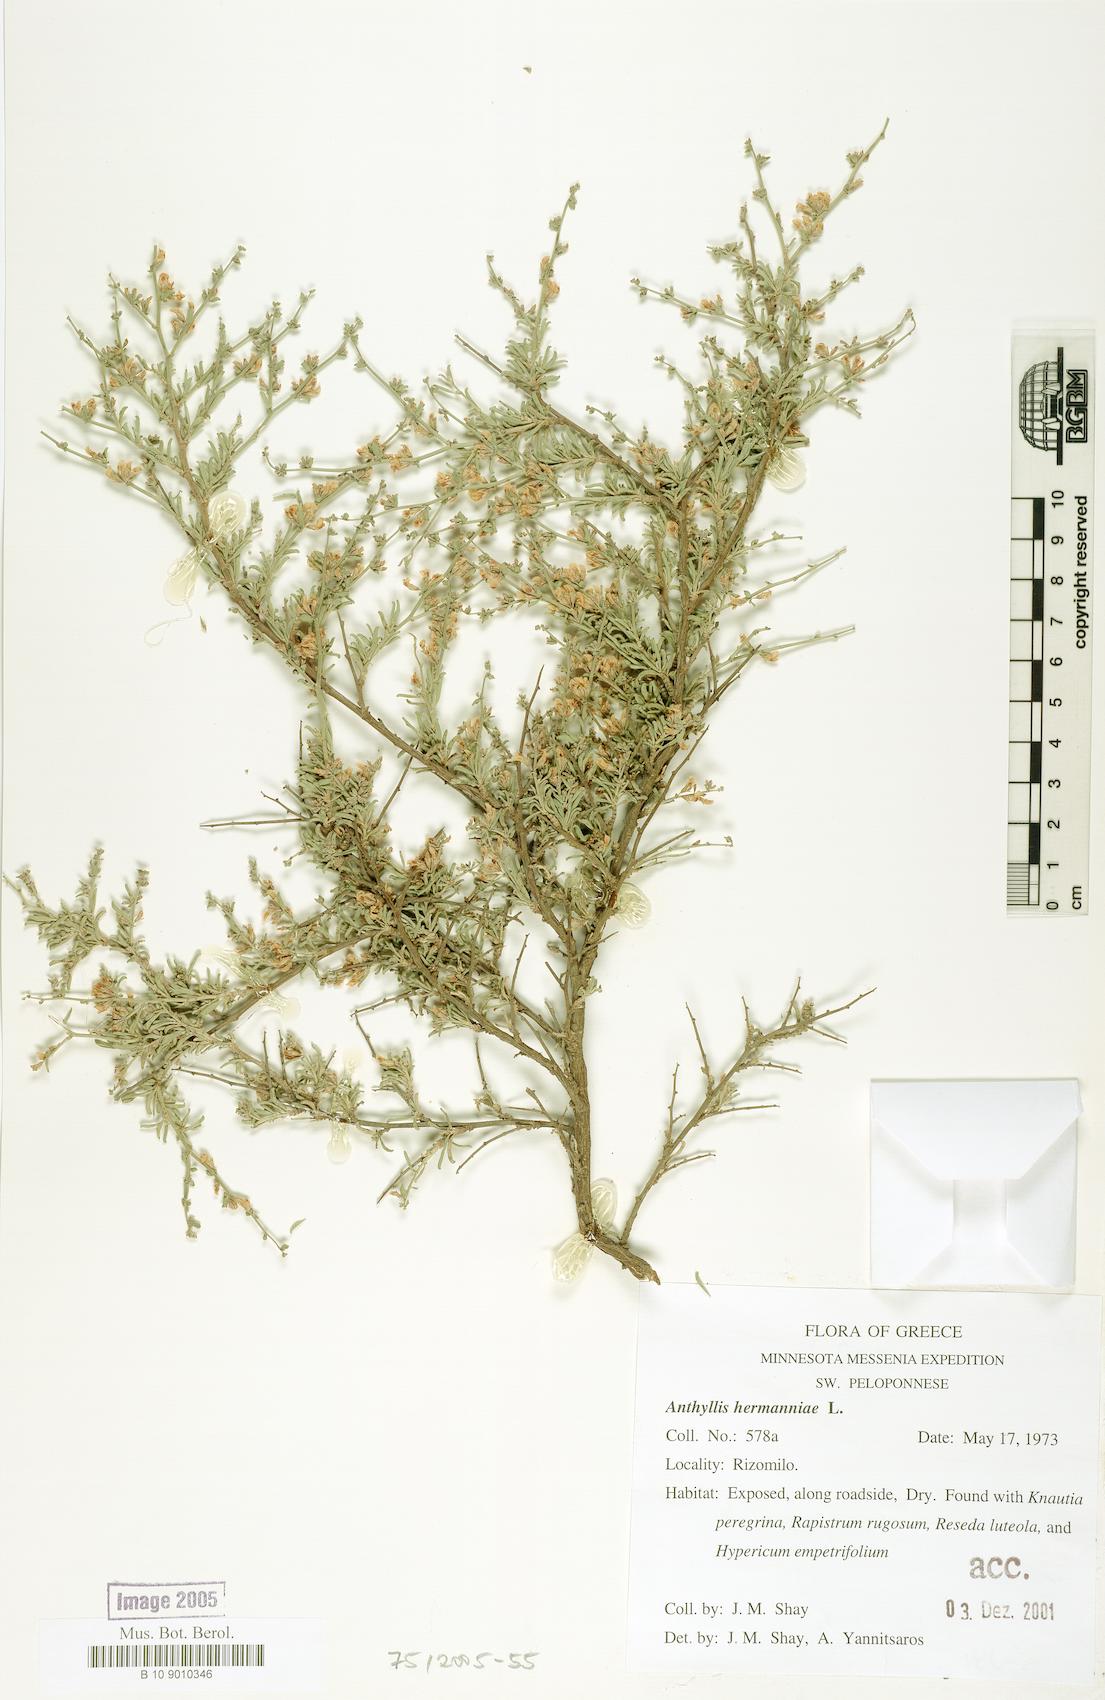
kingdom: Plantae
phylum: Tracheophyta
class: Magnoliopsida
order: Fabales
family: Fabaceae
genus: Anthyllis
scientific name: Anthyllis hermanniae
